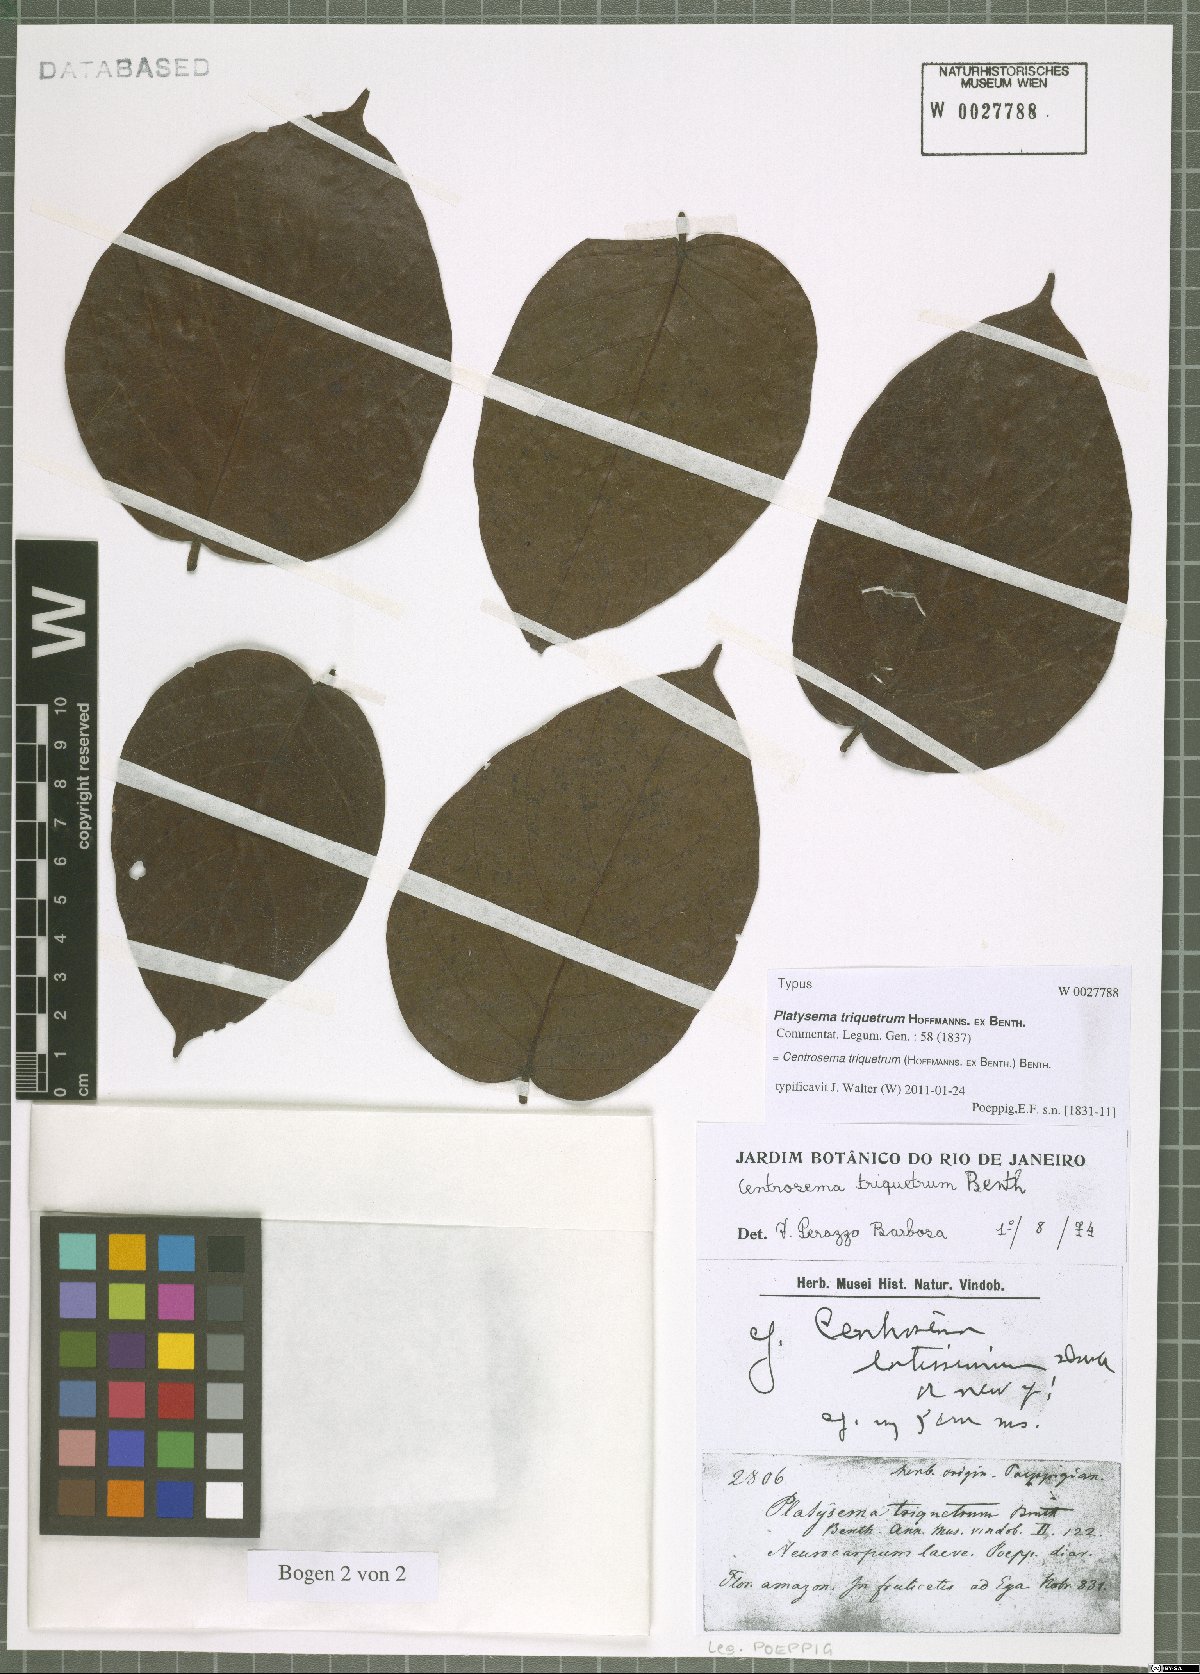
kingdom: Plantae
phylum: Tracheophyta
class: Magnoliopsida
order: Fabales
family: Fabaceae
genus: Centrosema
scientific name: Centrosema triquetrum
